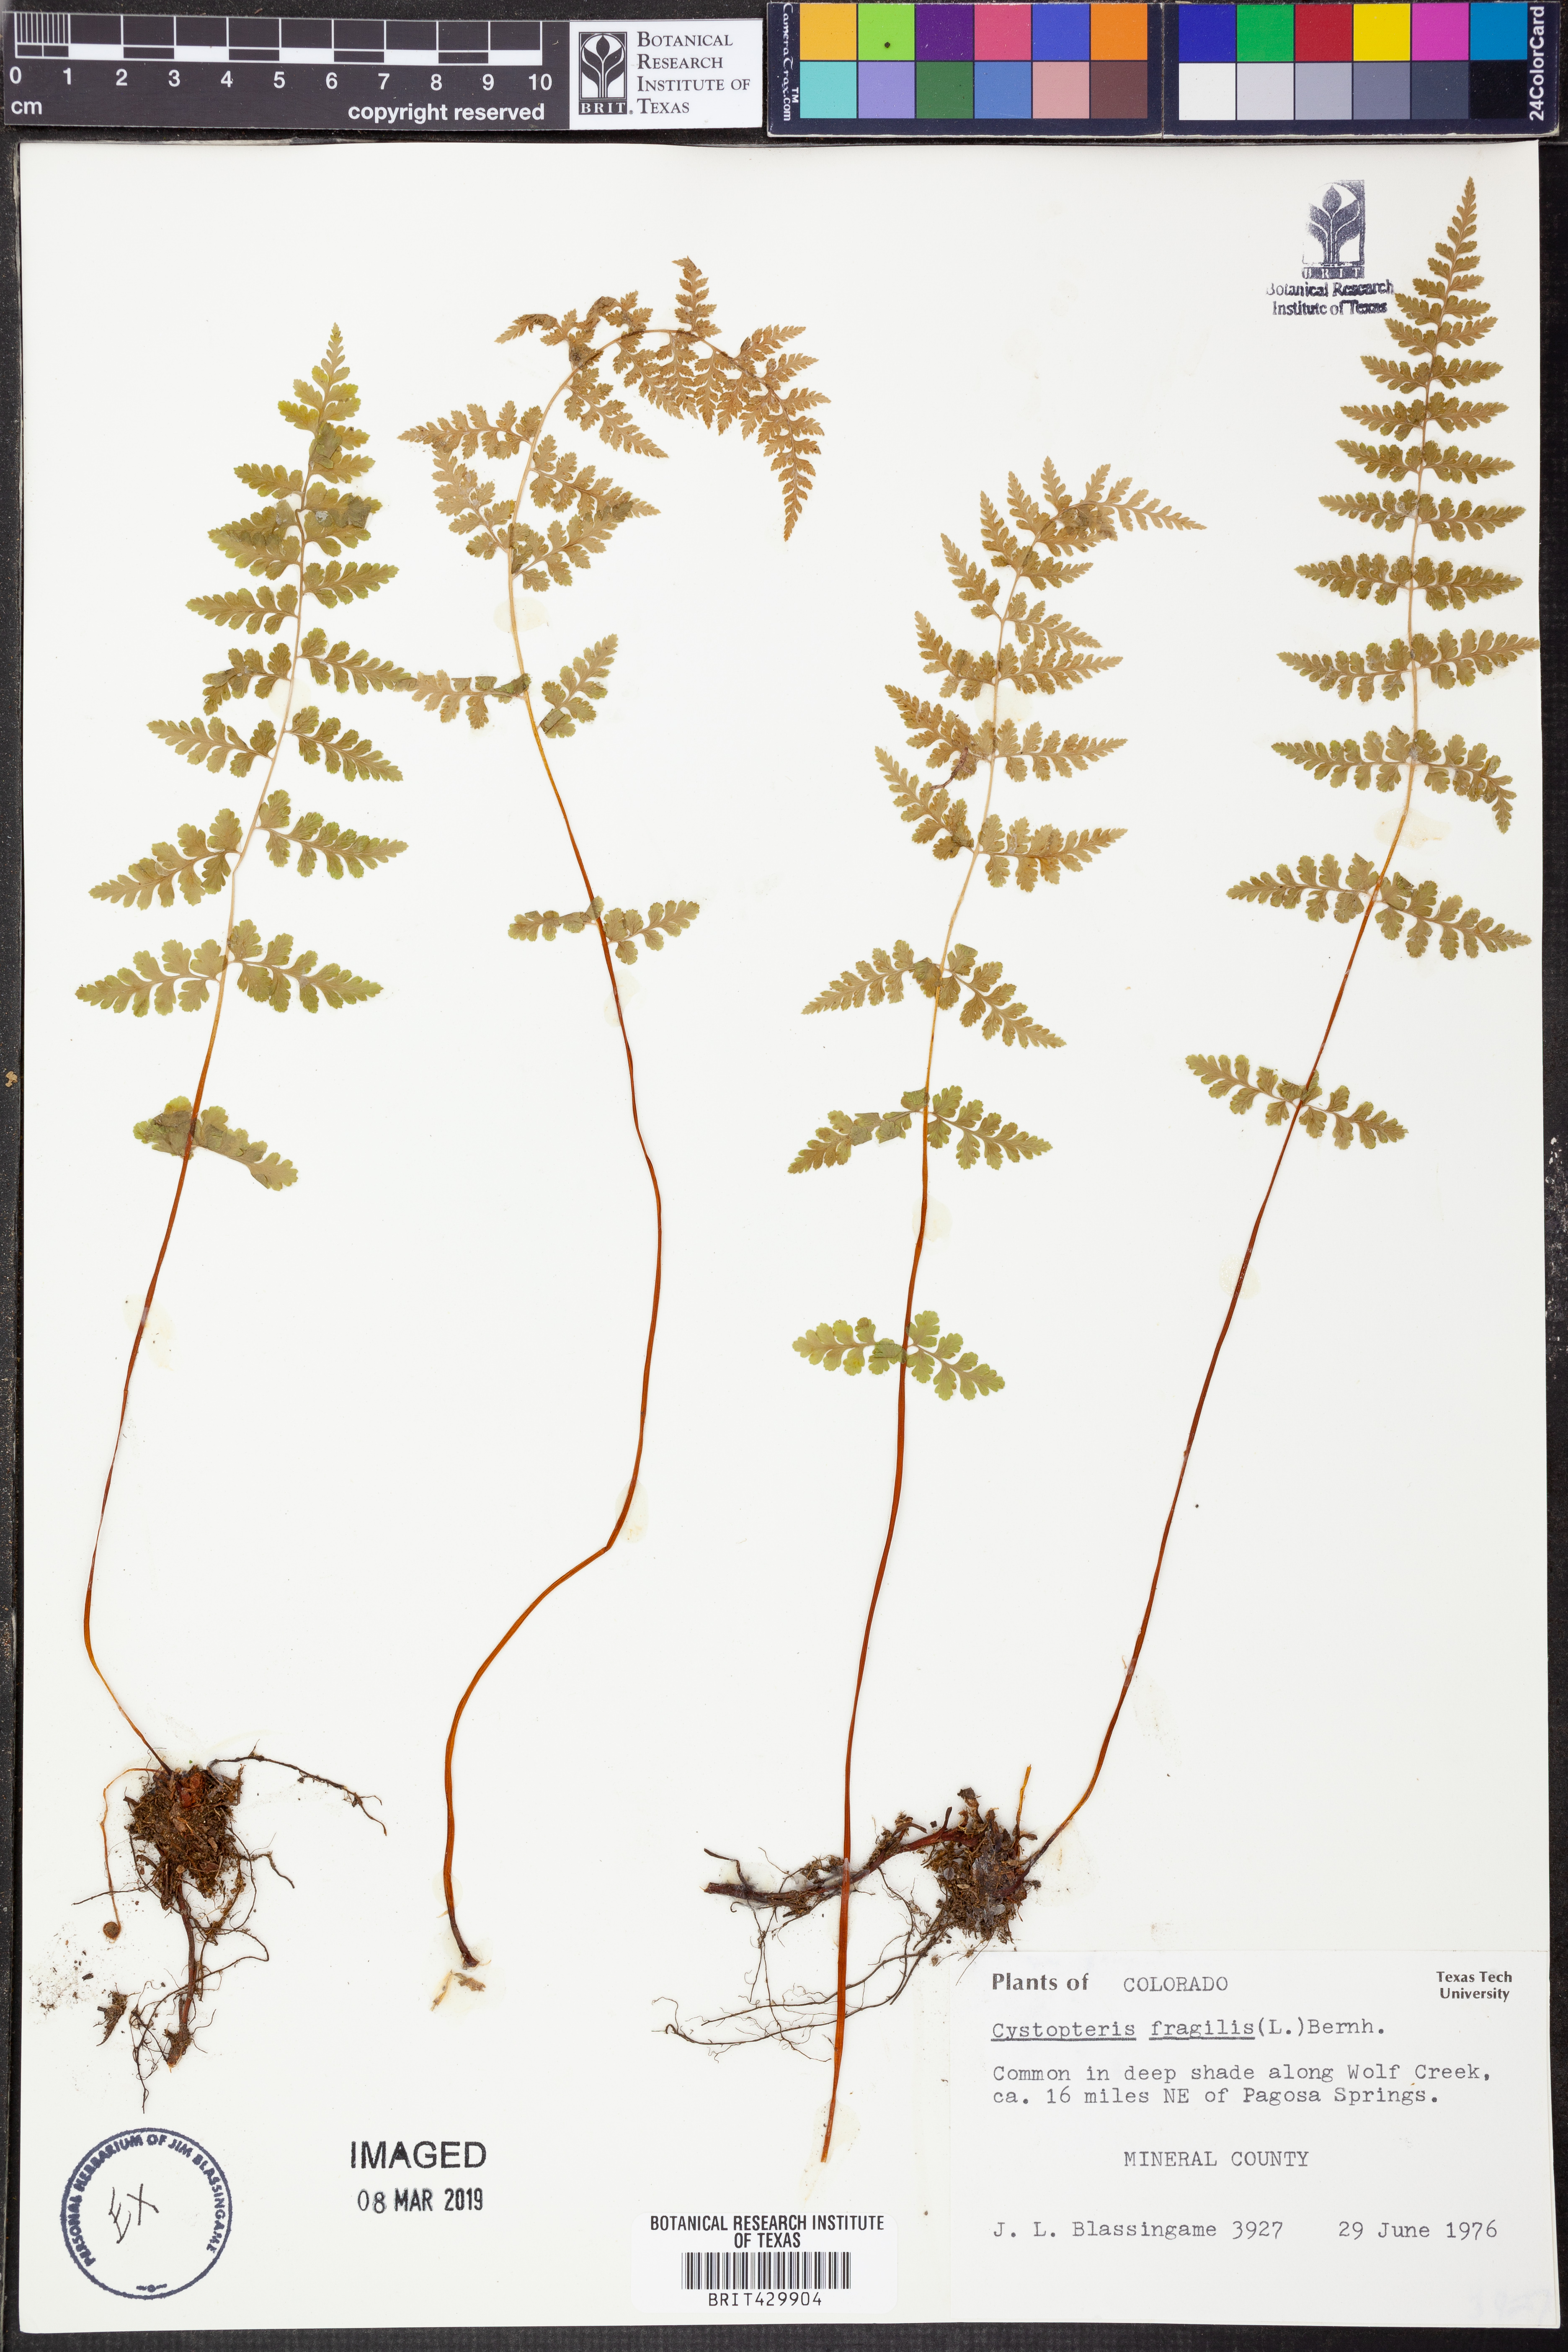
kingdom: Plantae
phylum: Tracheophyta
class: Polypodiopsida
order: Polypodiales
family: Cystopteridaceae
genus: Cystopteris
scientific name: Cystopteris fragilis
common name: Brittle bladder fern
